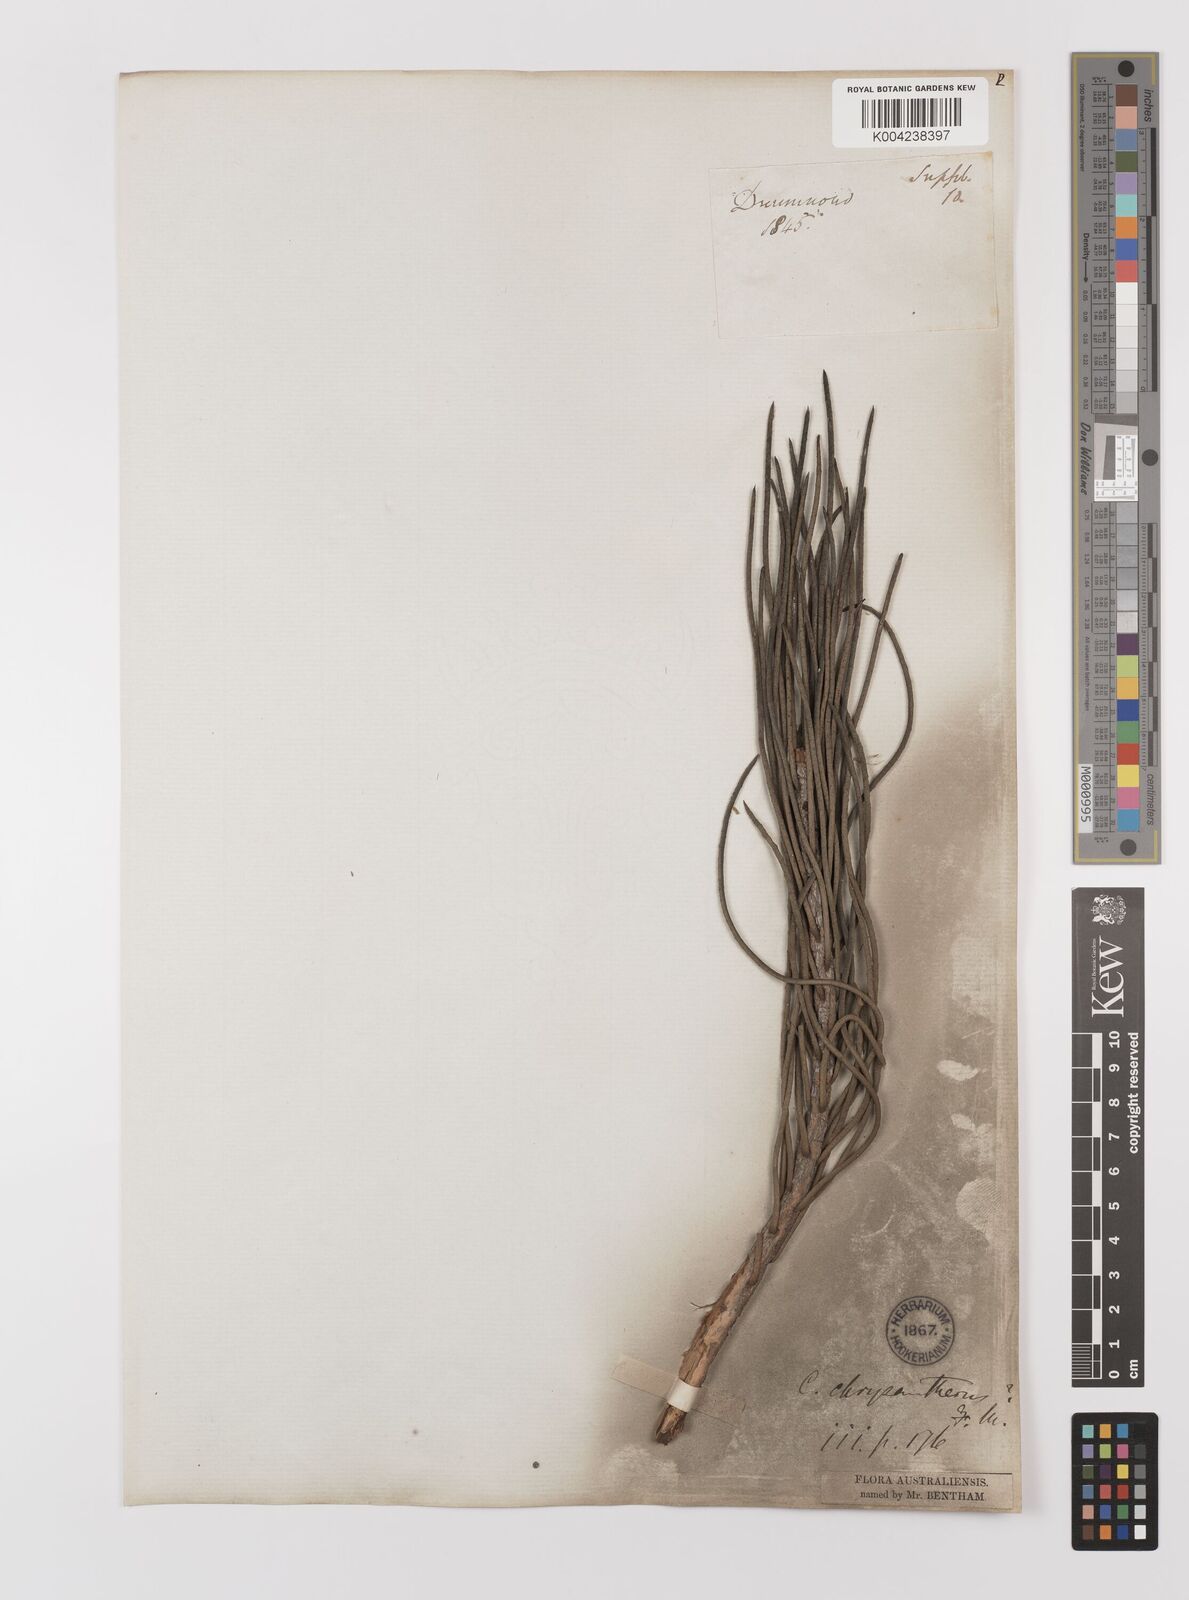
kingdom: Plantae
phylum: Tracheophyta
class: Magnoliopsida
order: Myrtales
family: Myrtaceae
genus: Melaleuca
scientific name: Melaleuca chrysantherea
